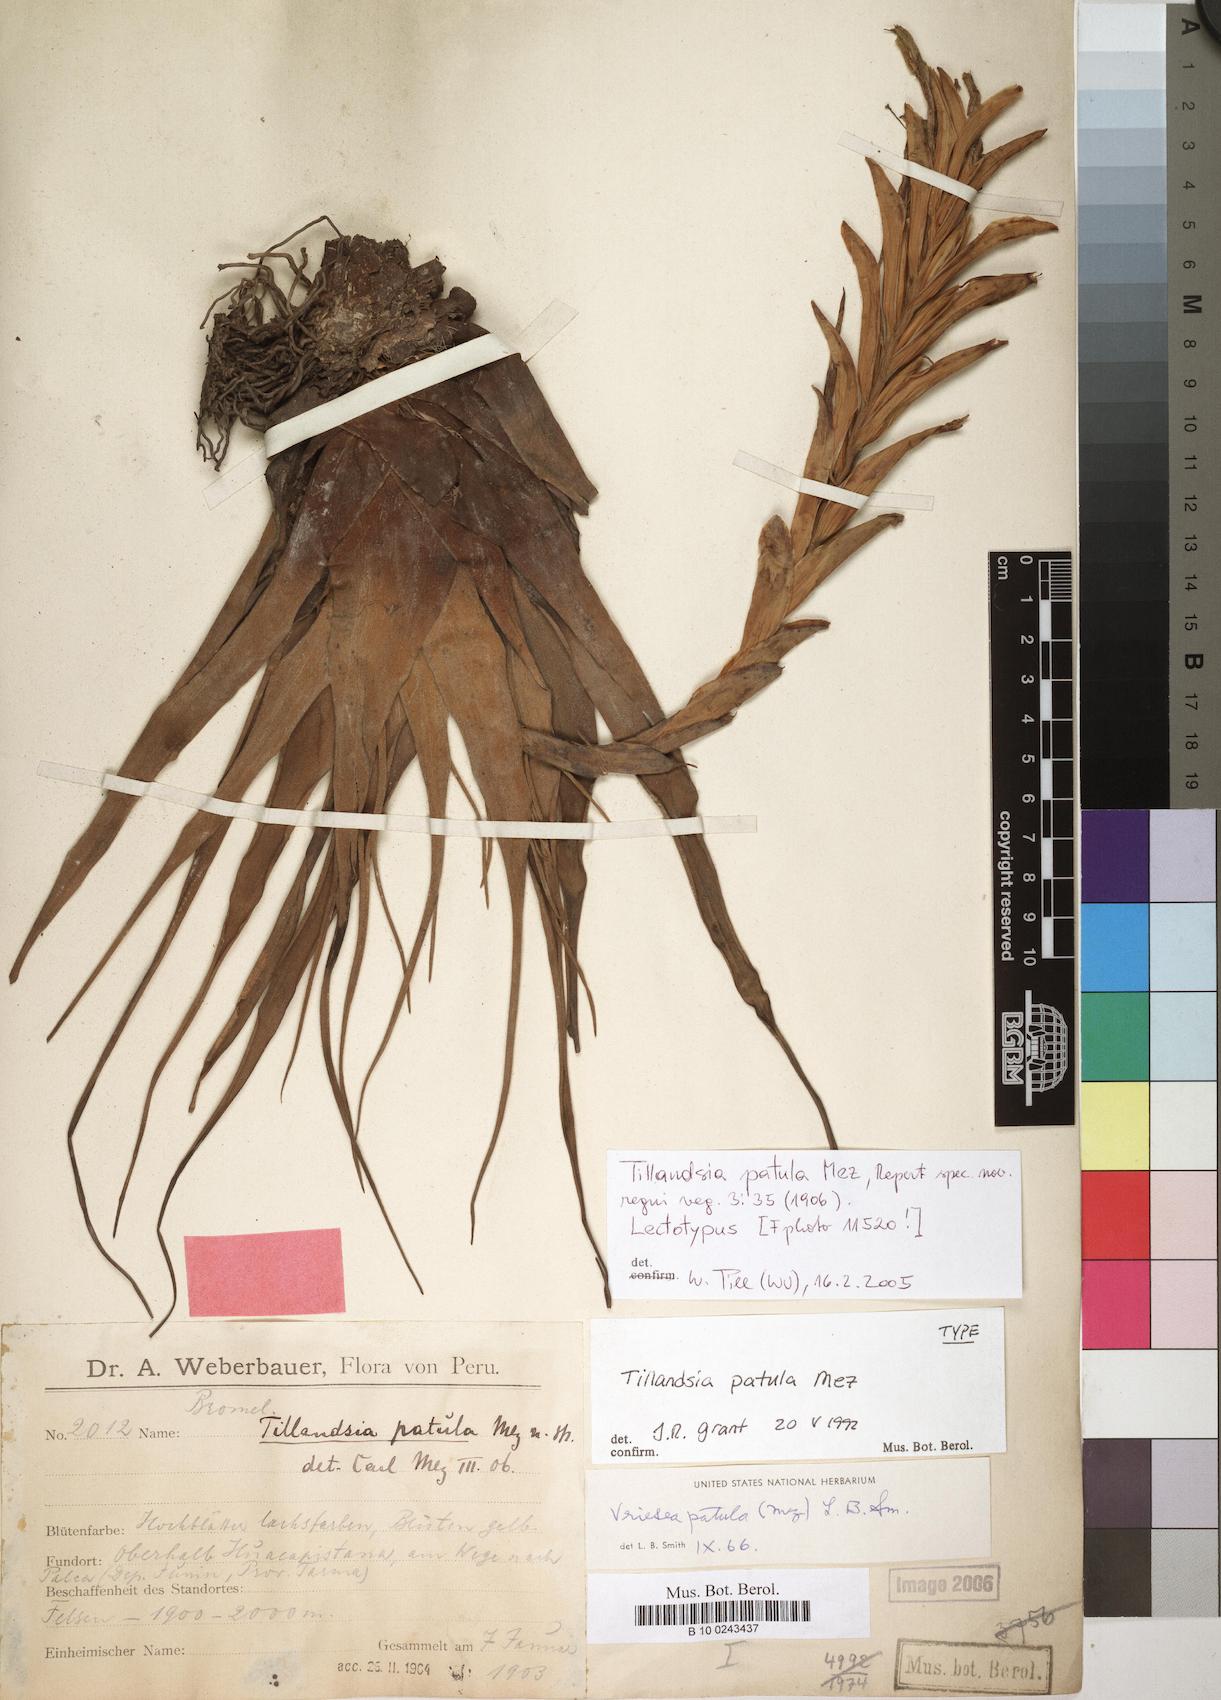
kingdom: Plantae
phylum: Tracheophyta
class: Liliopsida
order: Poales
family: Bromeliaceae
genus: Vriesea
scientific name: Vriesea patula
